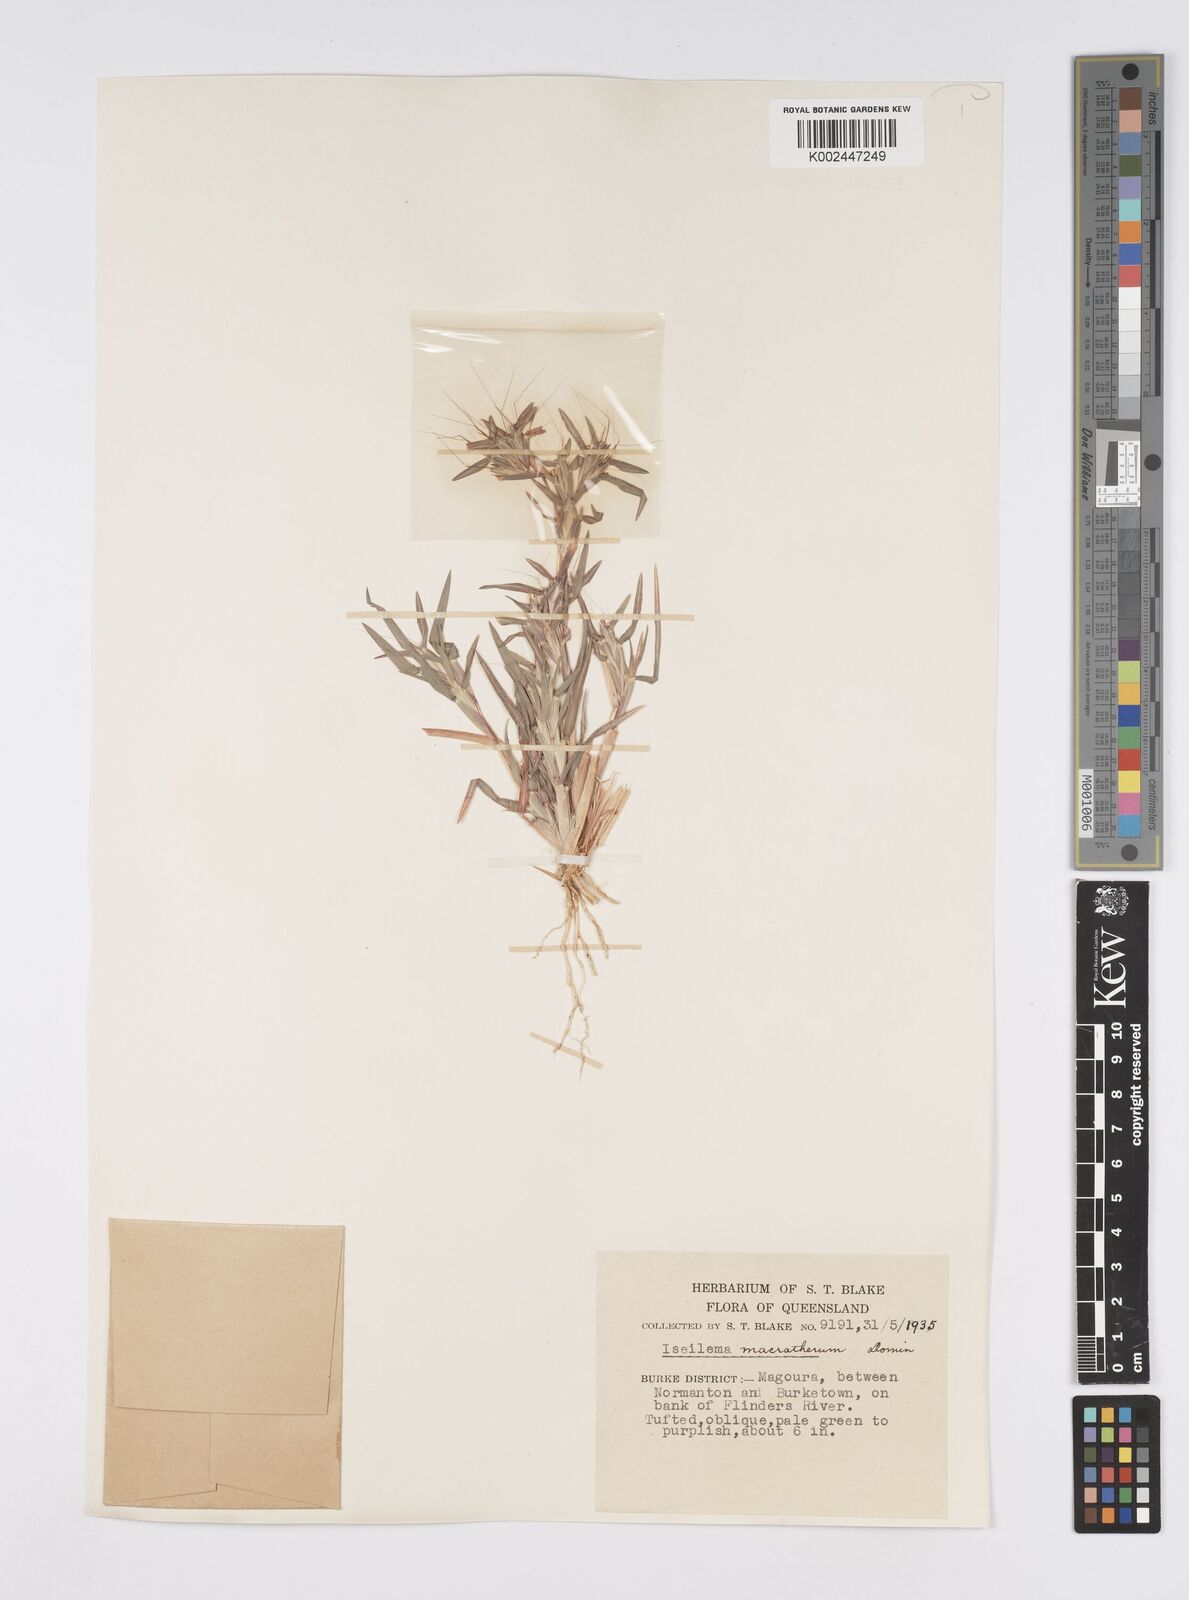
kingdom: Plantae
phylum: Tracheophyta
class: Liliopsida
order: Poales
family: Poaceae
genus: Iseilema
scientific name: Iseilema macratherum
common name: Bull flinders grass
